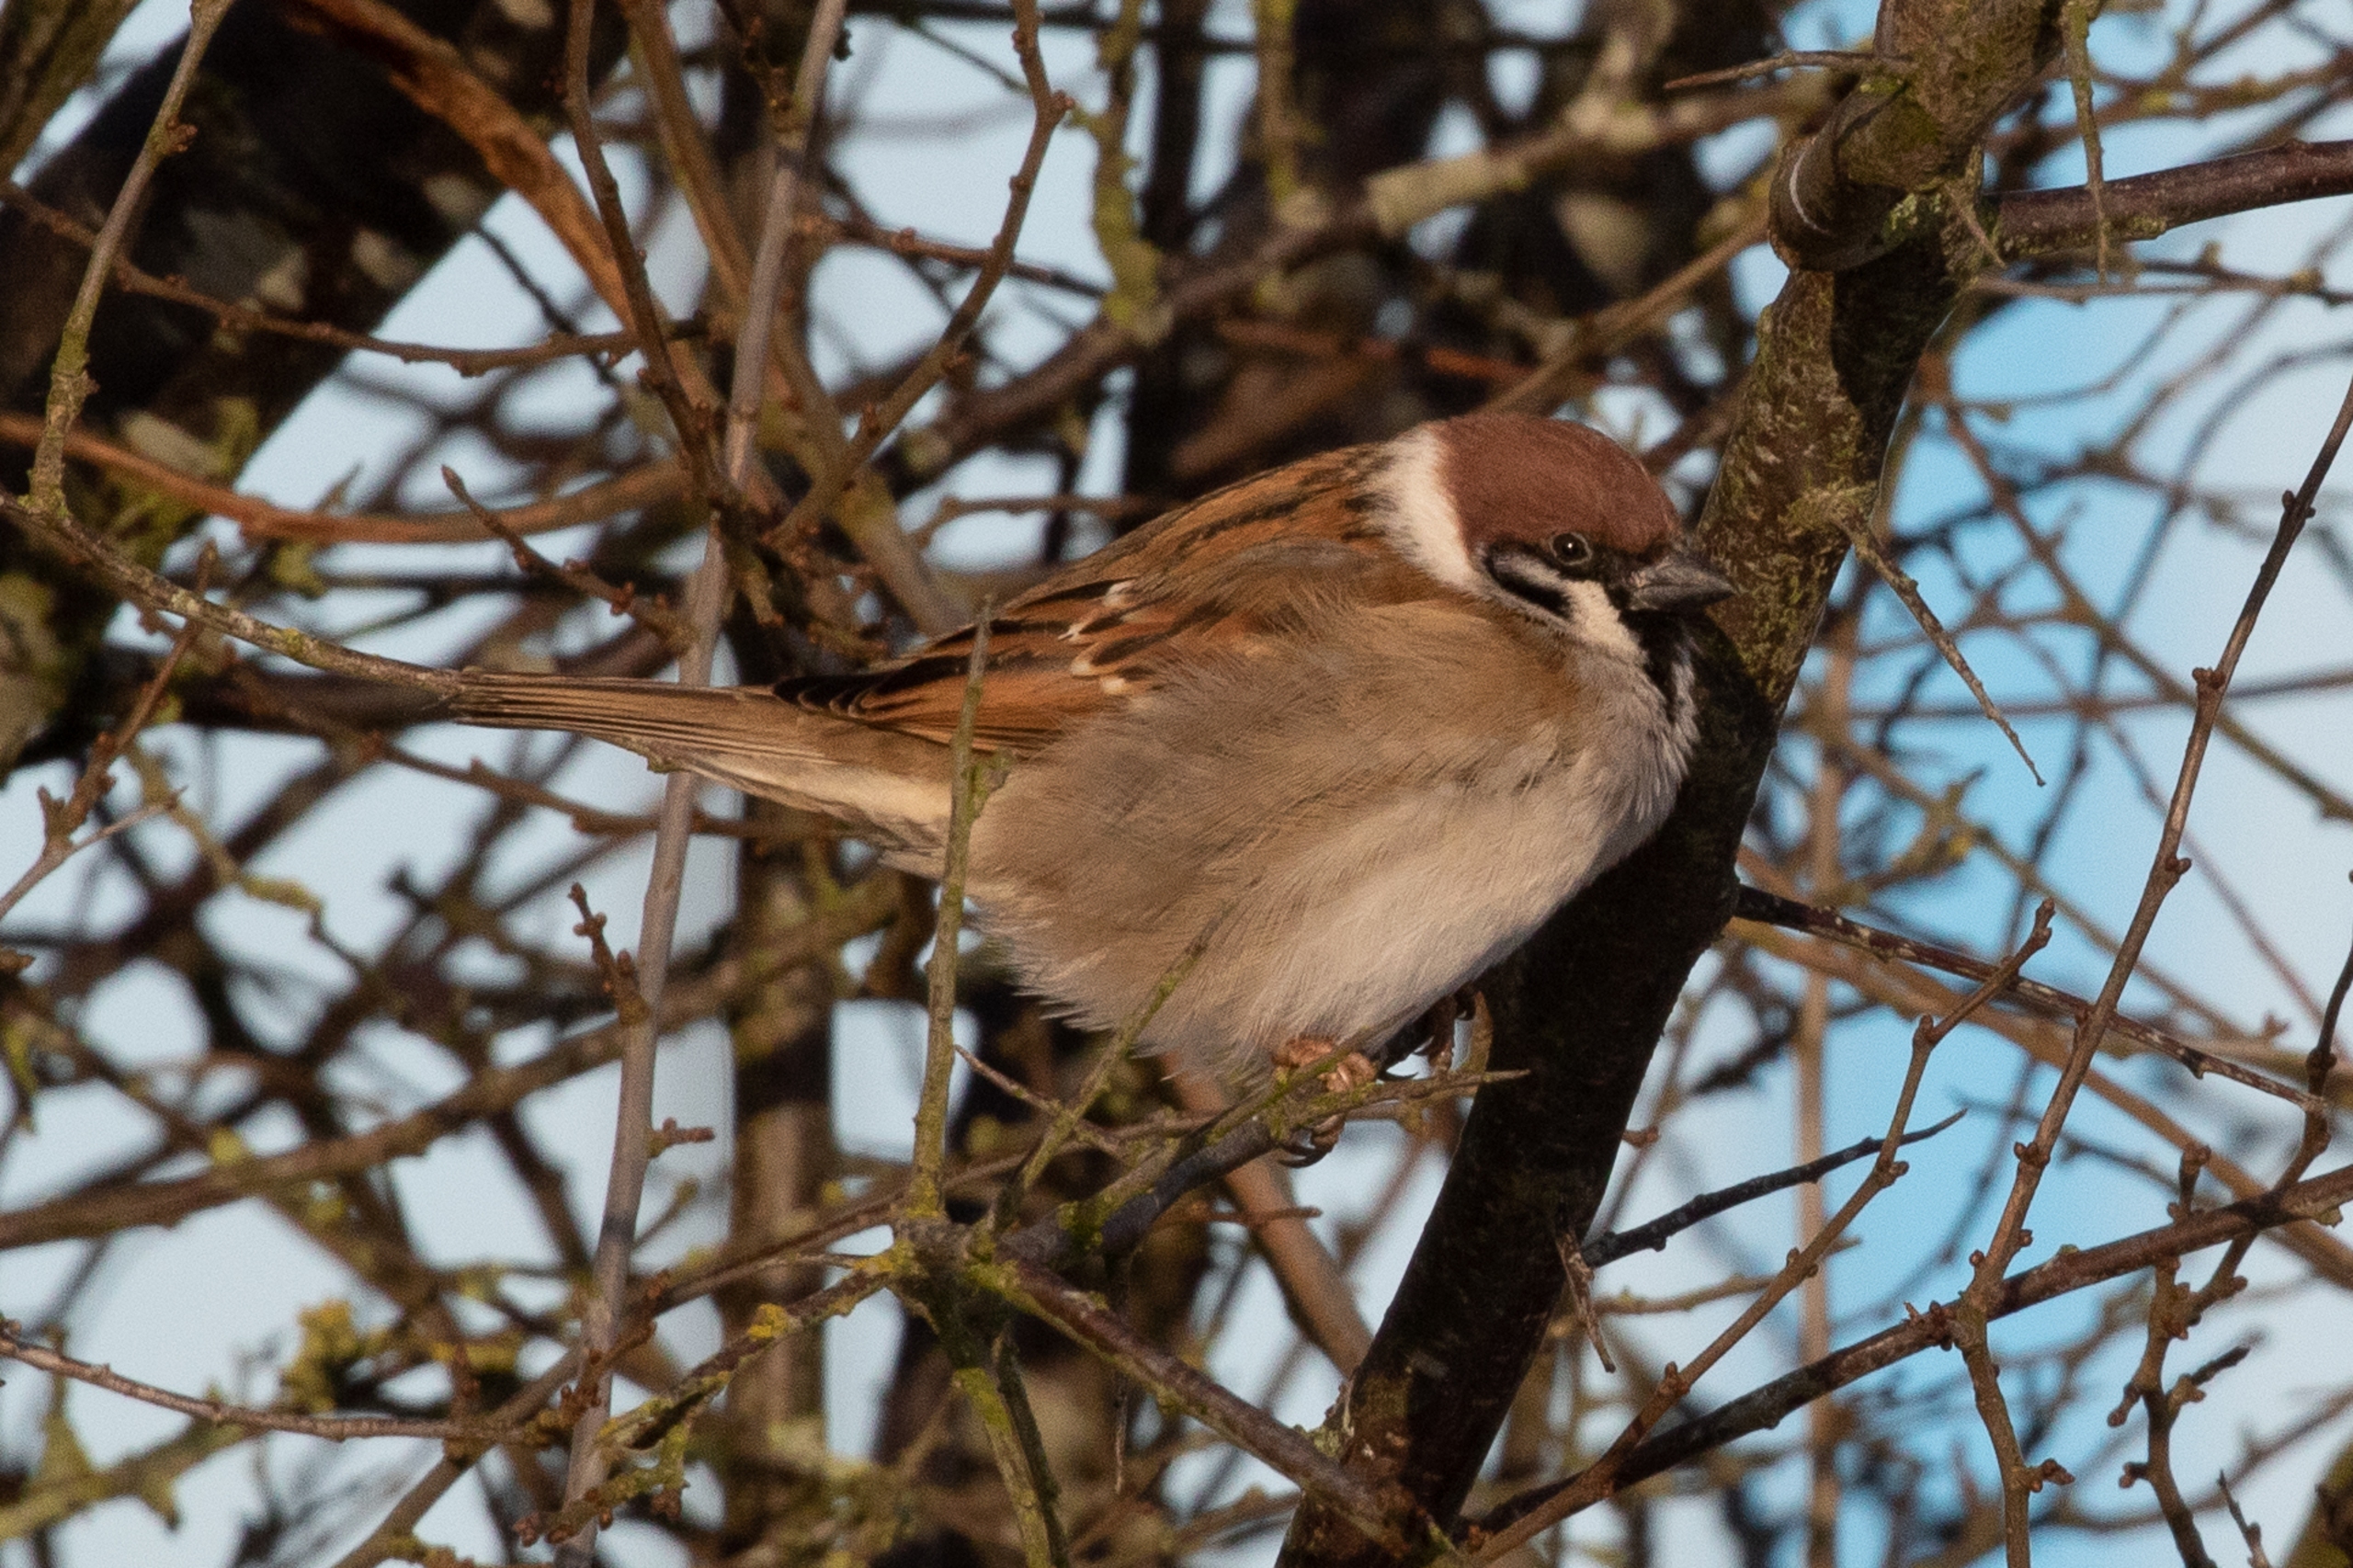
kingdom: Animalia
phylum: Chordata
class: Aves
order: Passeriformes
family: Passeridae
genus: Passer
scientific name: Passer montanus
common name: Skovspurv
